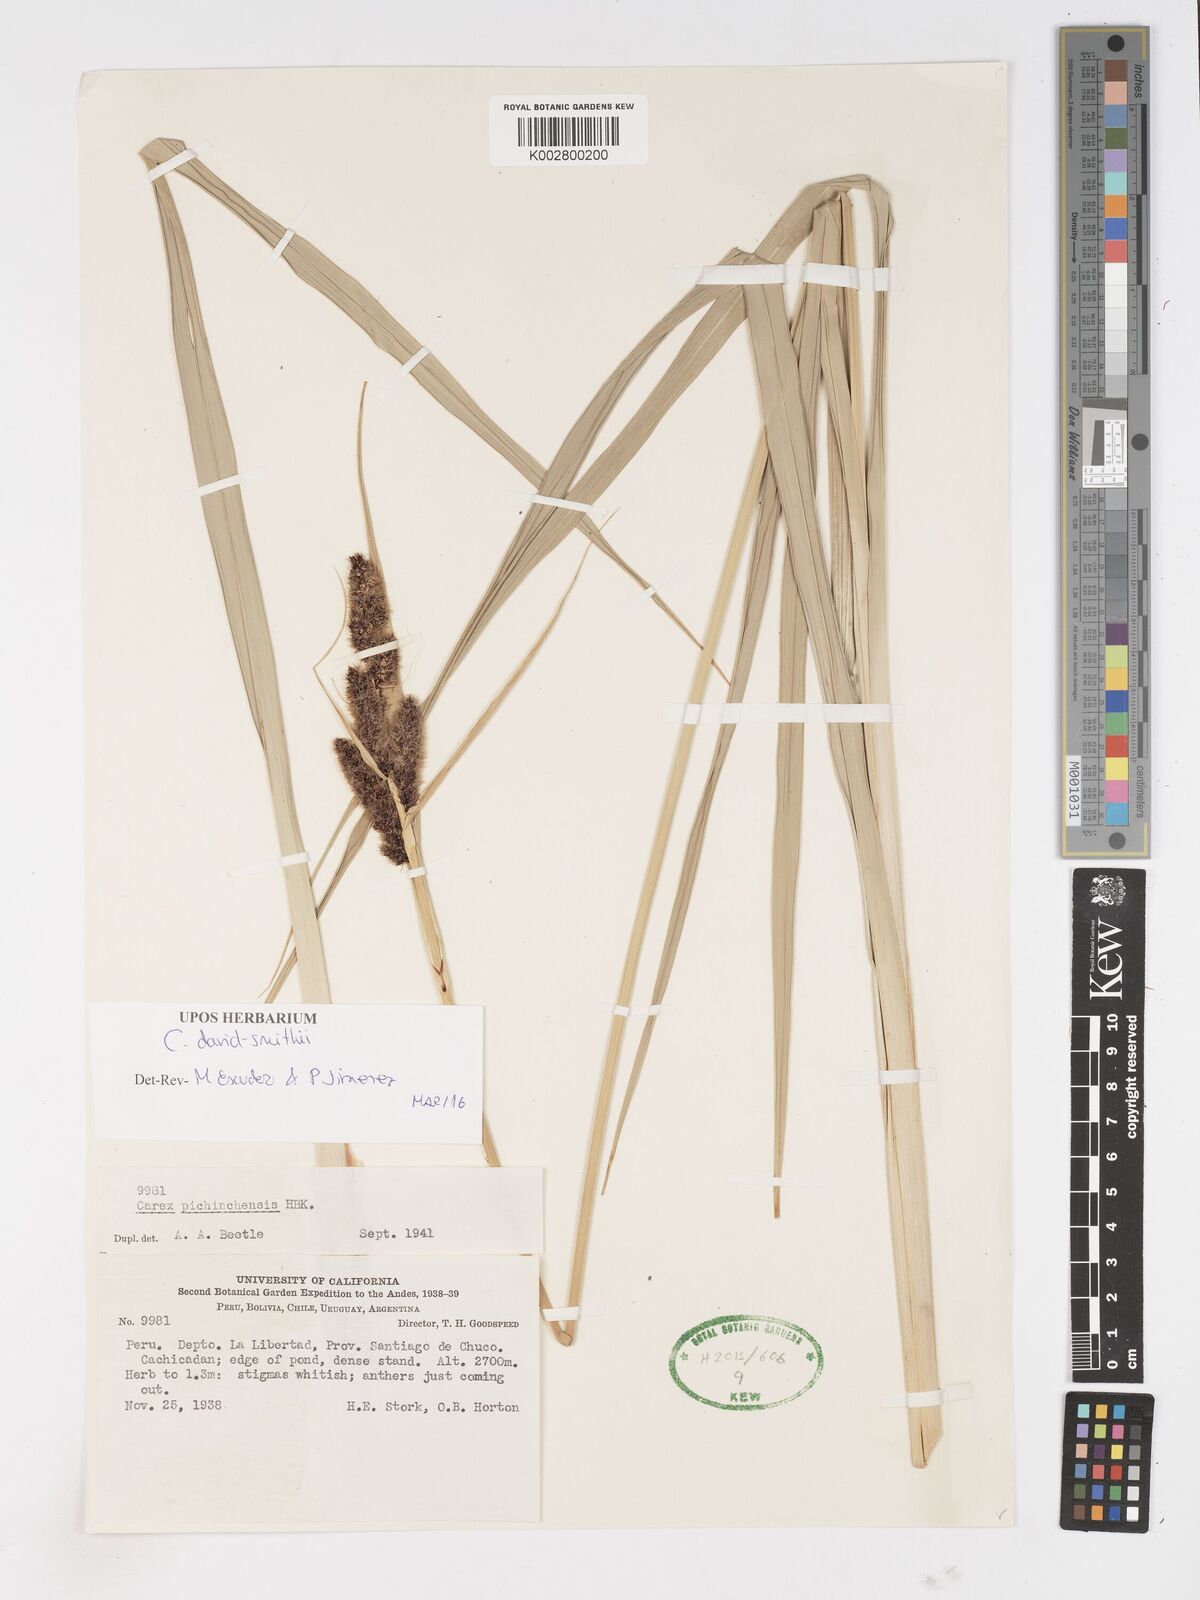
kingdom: Plantae
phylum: Tracheophyta
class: Liliopsida
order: Poales
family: Cyperaceae
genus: Carex
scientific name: Carex david-smithii
